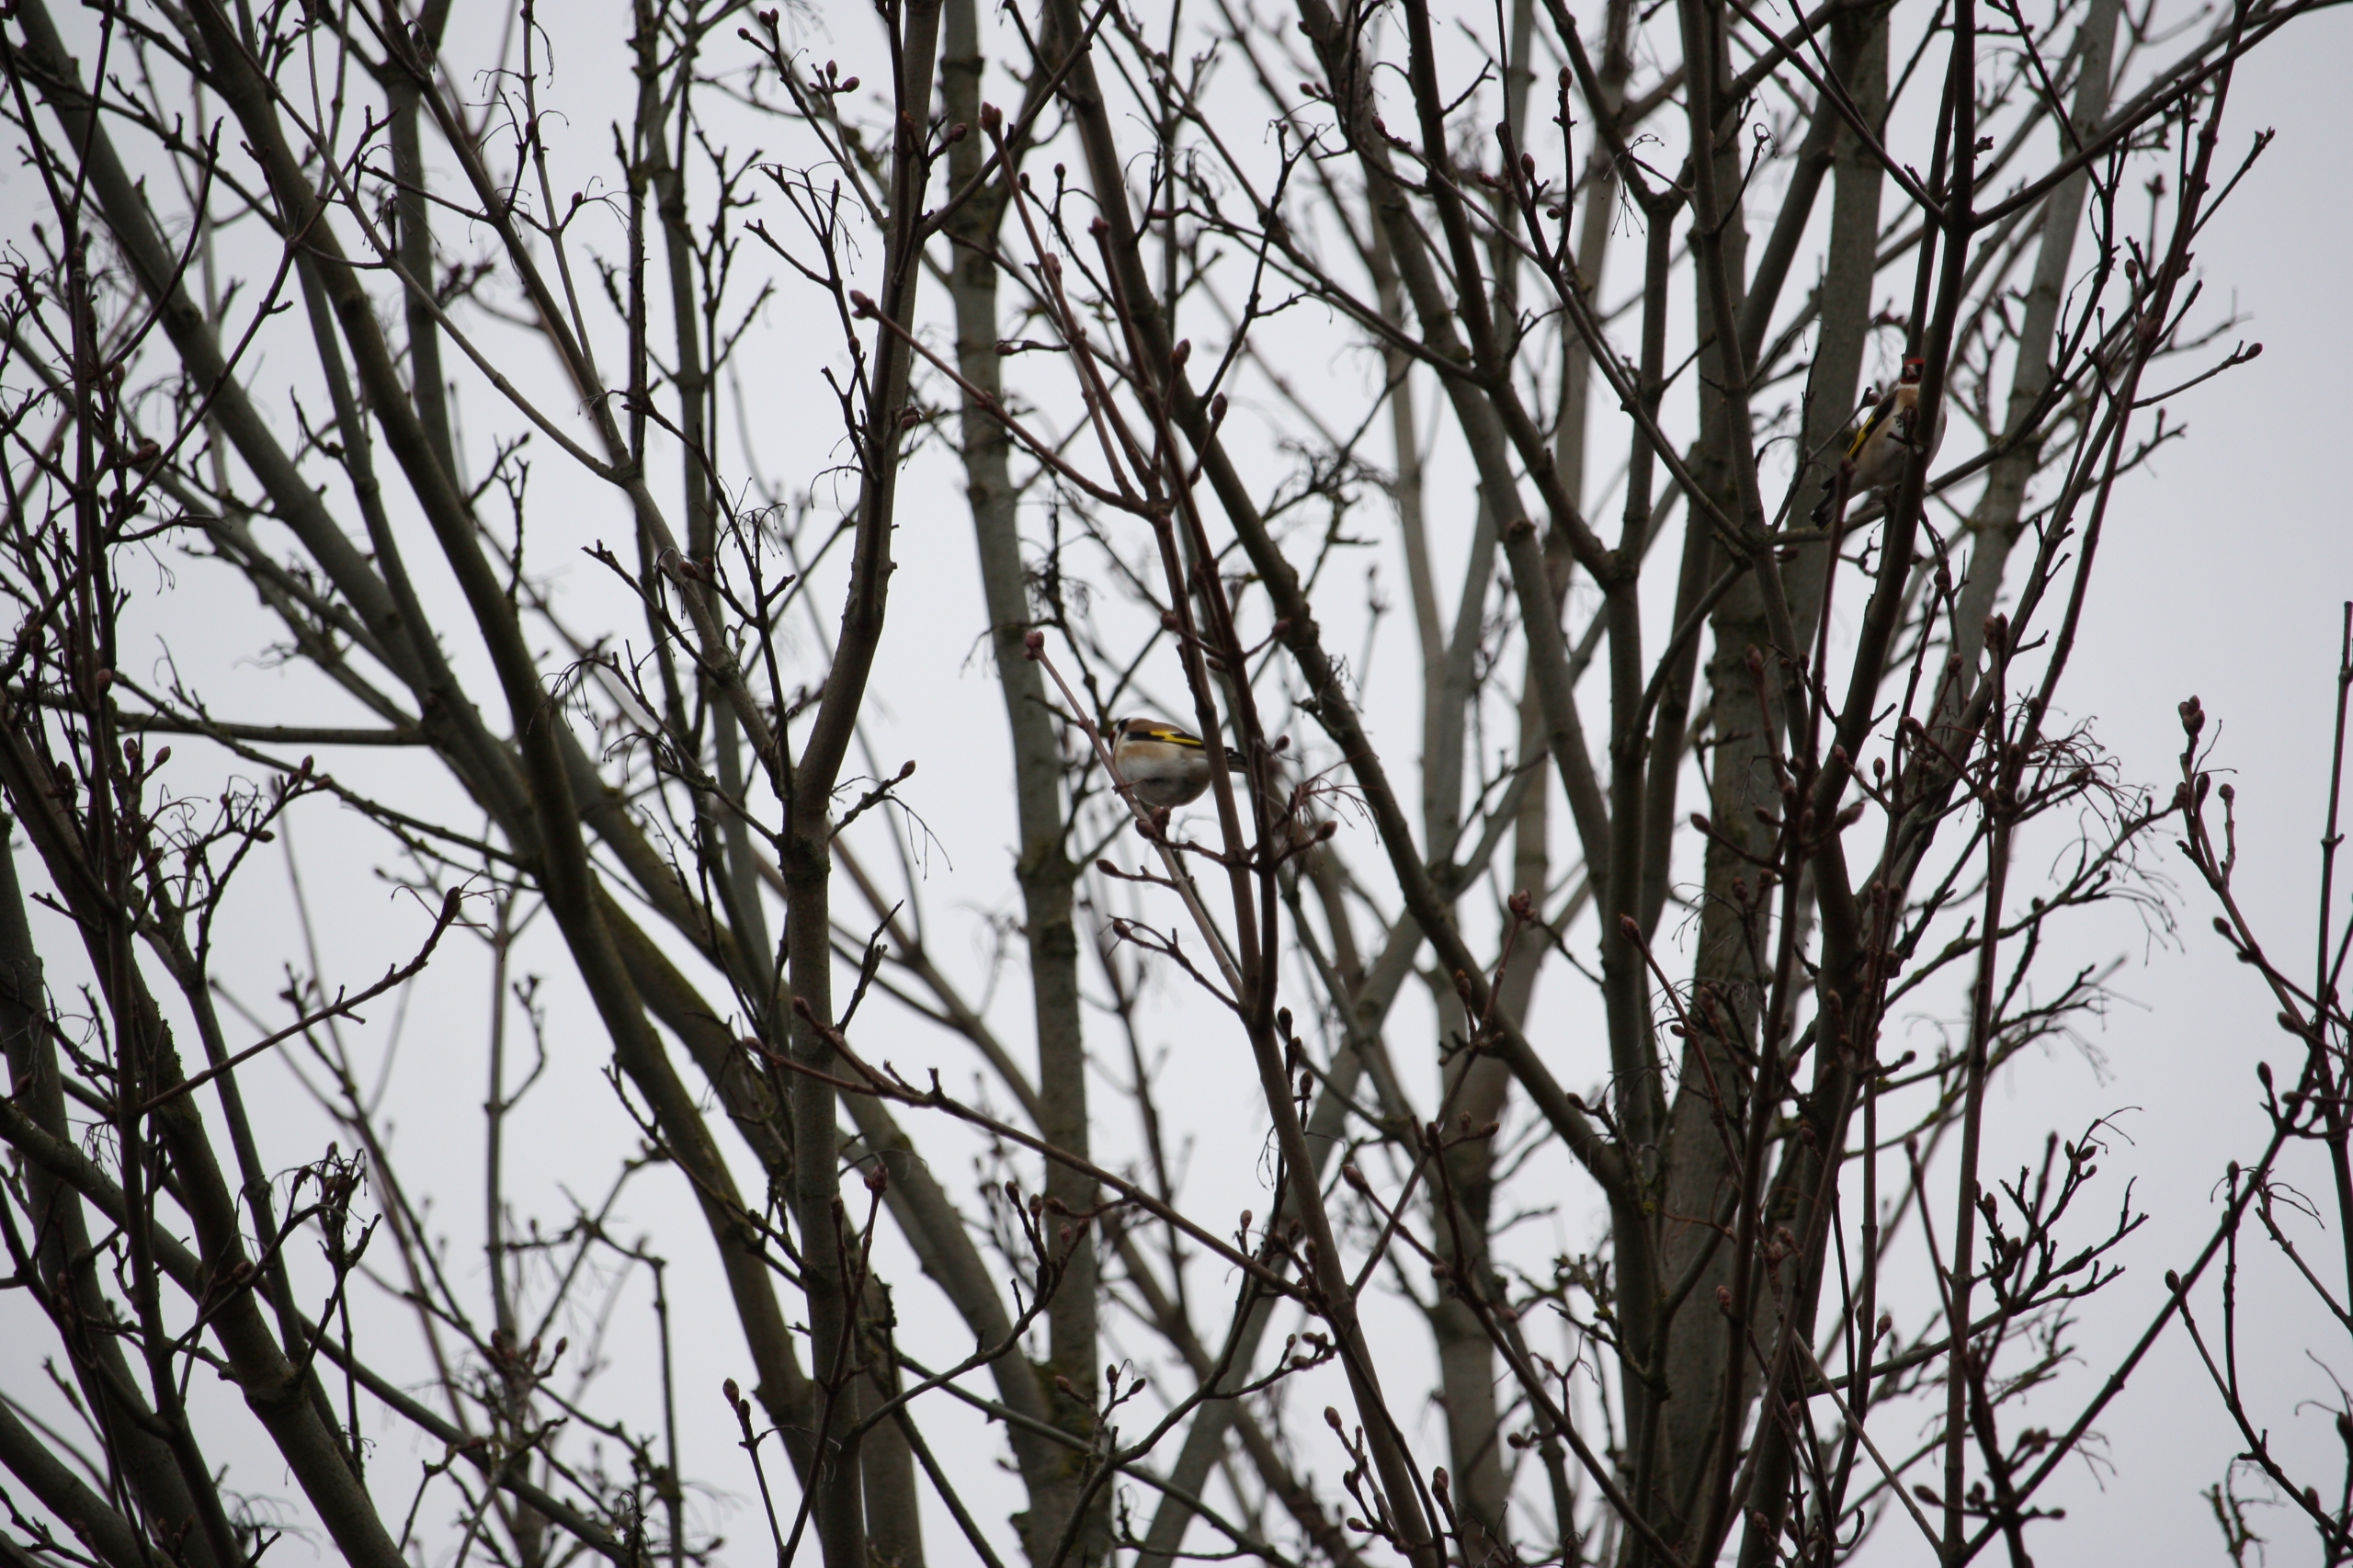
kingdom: Animalia
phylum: Chordata
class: Aves
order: Passeriformes
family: Fringillidae
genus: Carduelis
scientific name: Carduelis carduelis
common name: Stillits
